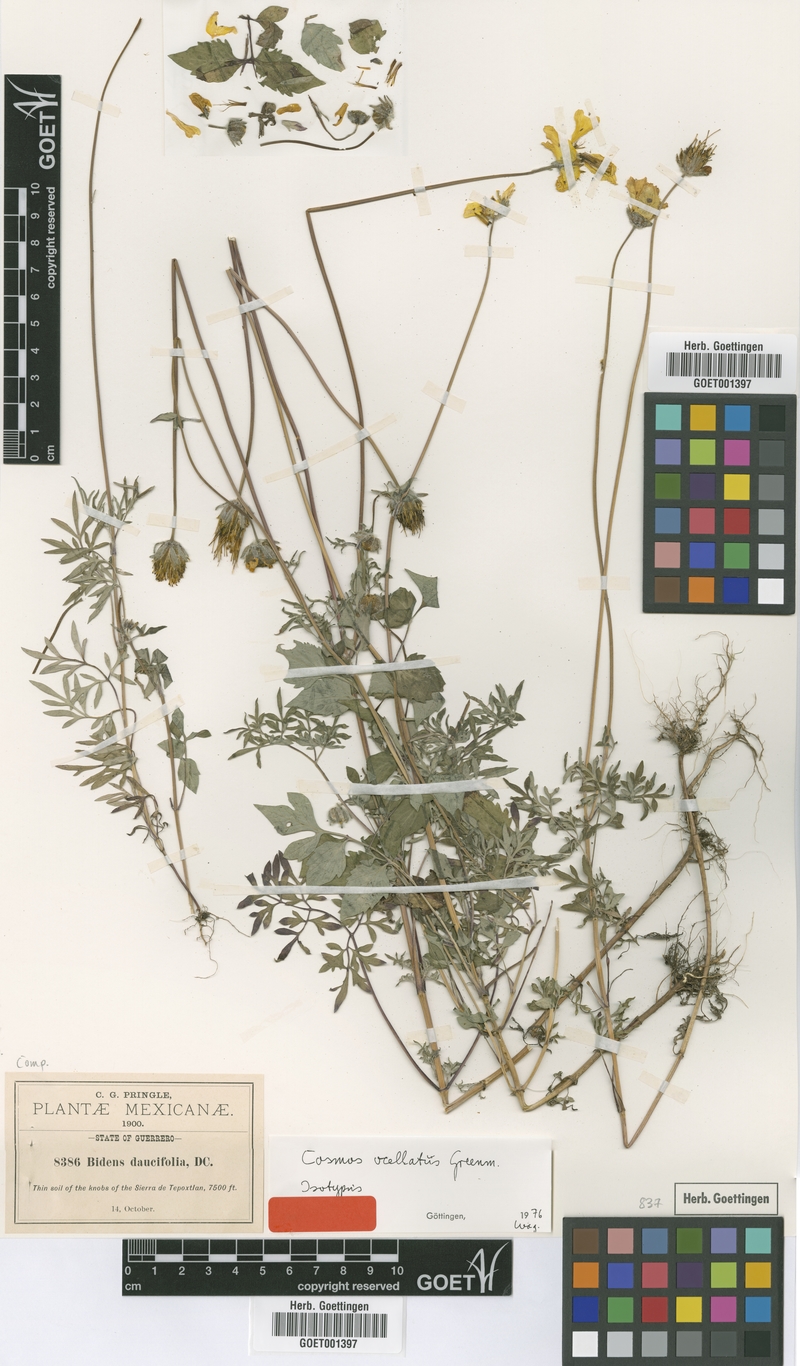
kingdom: Plantae
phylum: Tracheophyta
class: Magnoliopsida
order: Asterales
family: Asteraceae
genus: Bidens
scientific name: Bidens ocellatus
